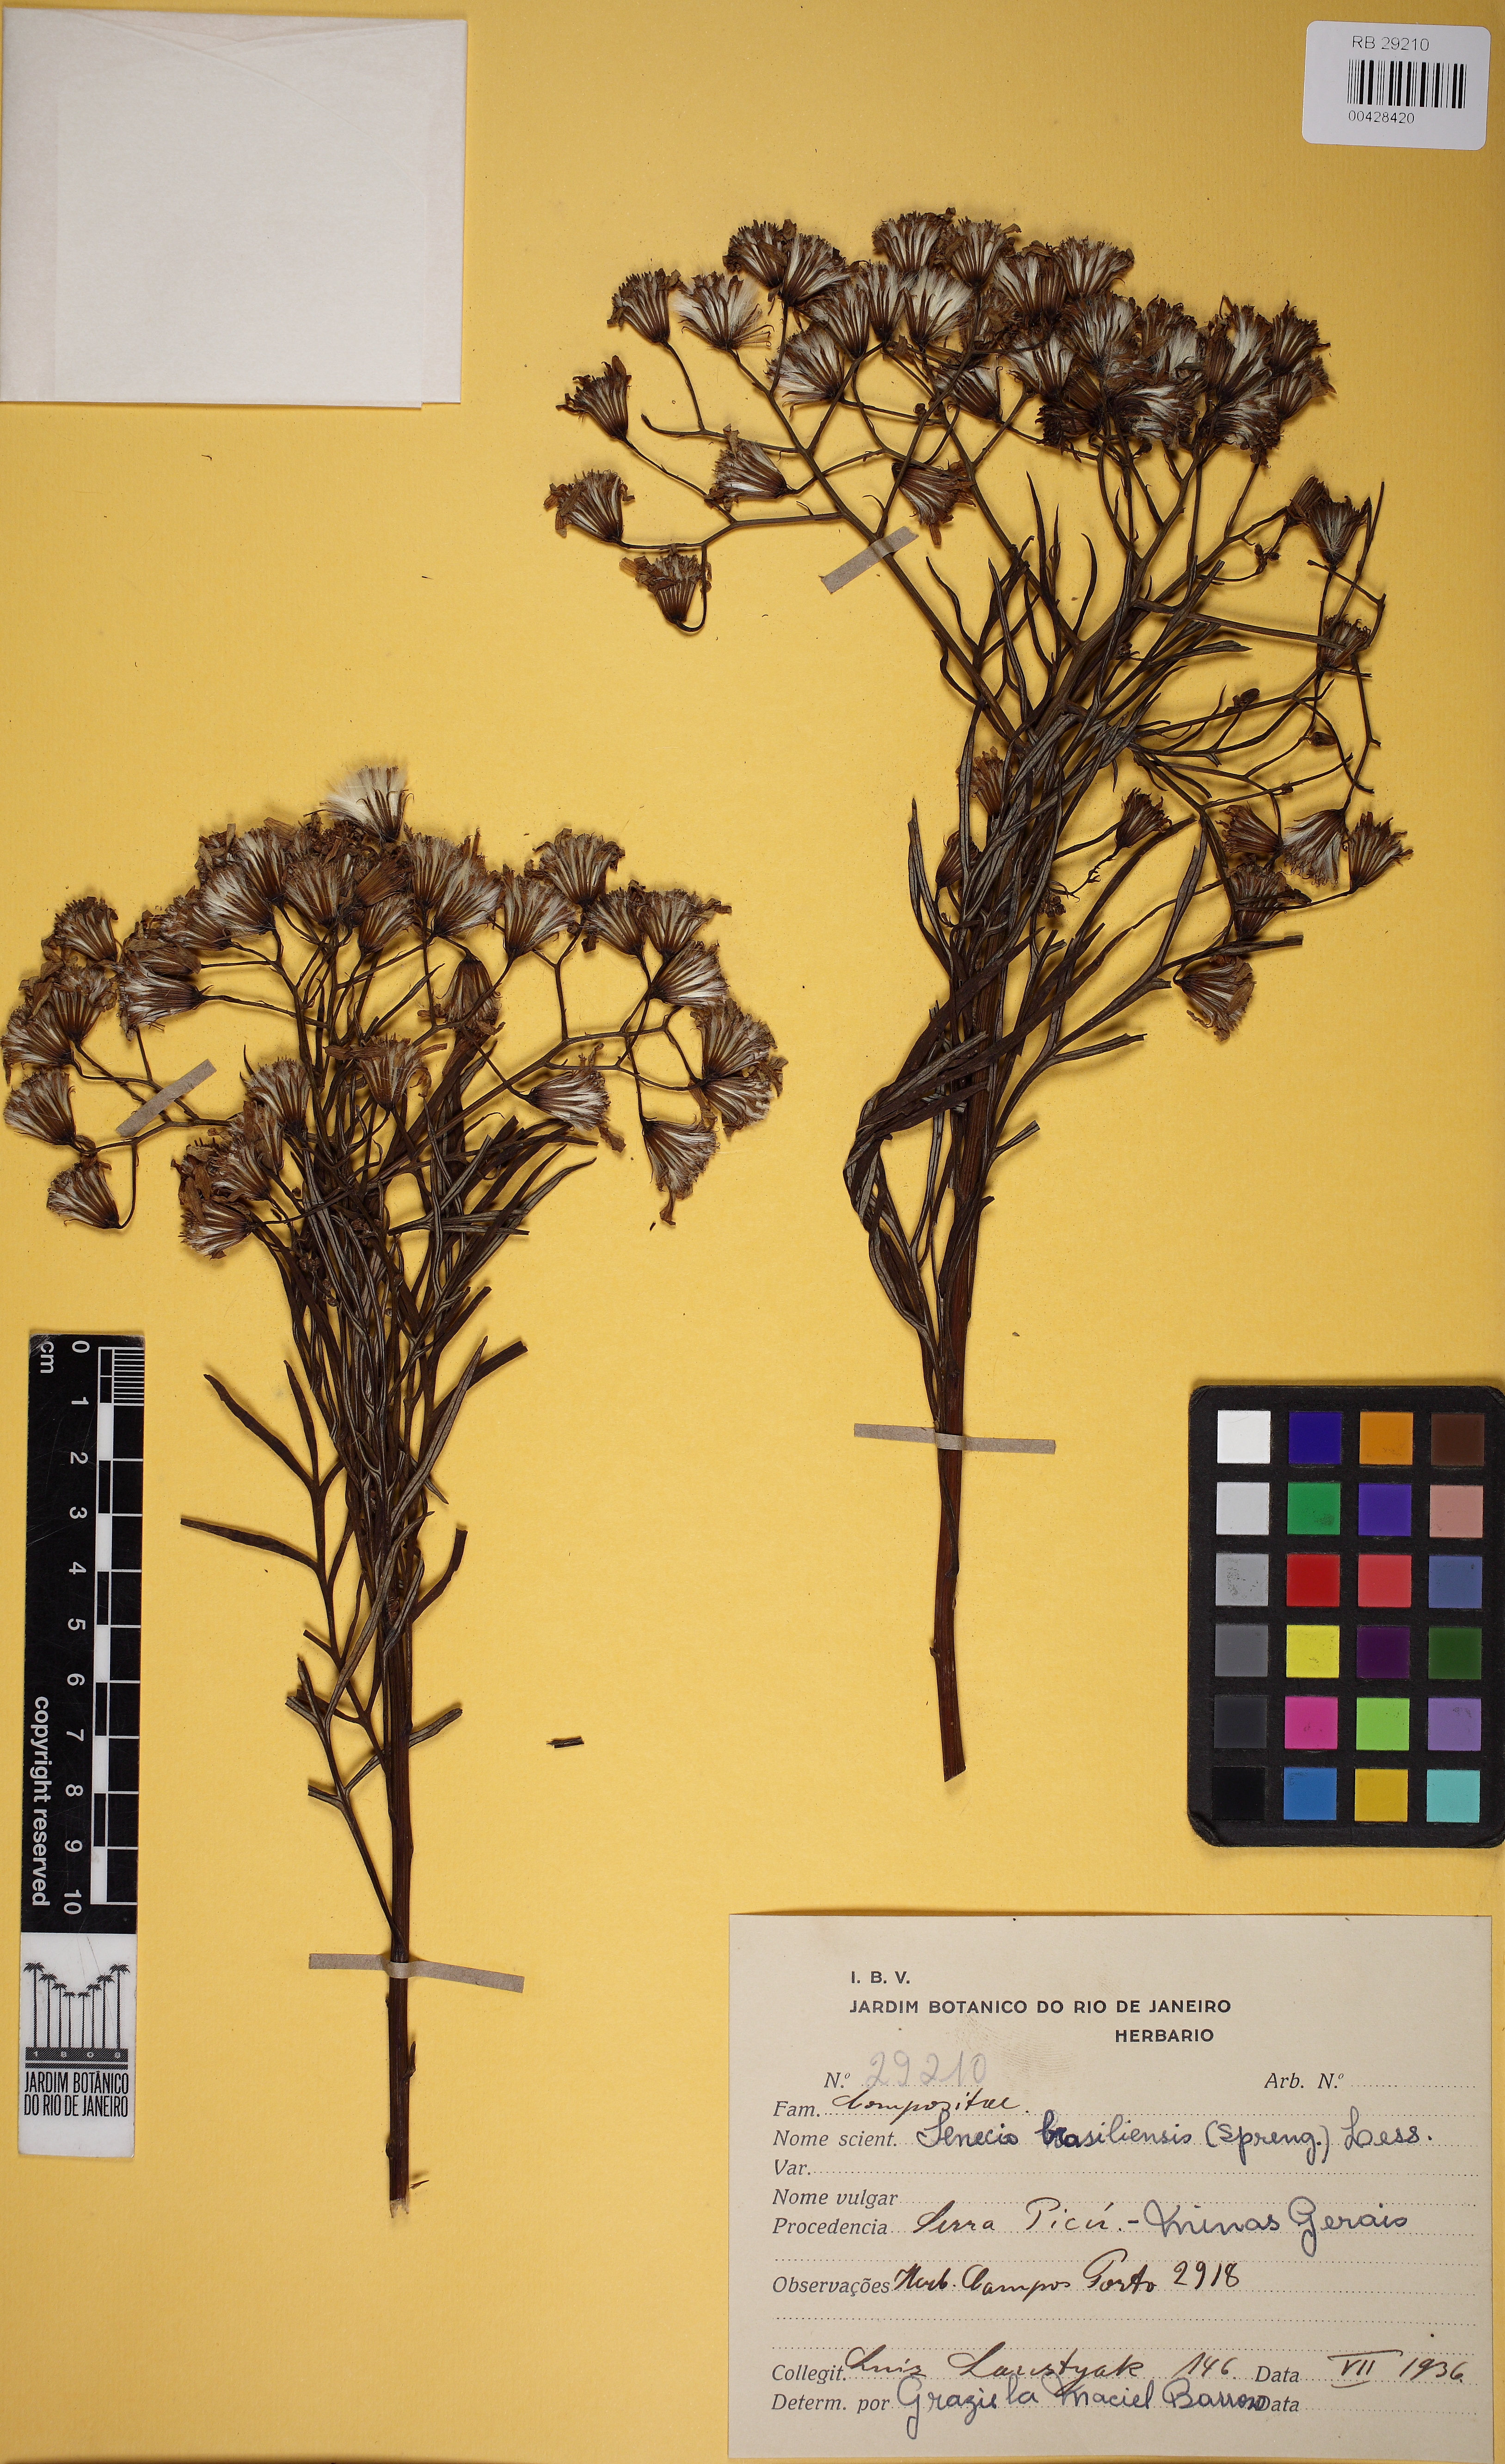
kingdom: Plantae
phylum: Tracheophyta
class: Magnoliopsida
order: Asterales
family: Asteraceae
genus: Senecio
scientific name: Senecio brasiliensis
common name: Hemp-leaf ragwort
